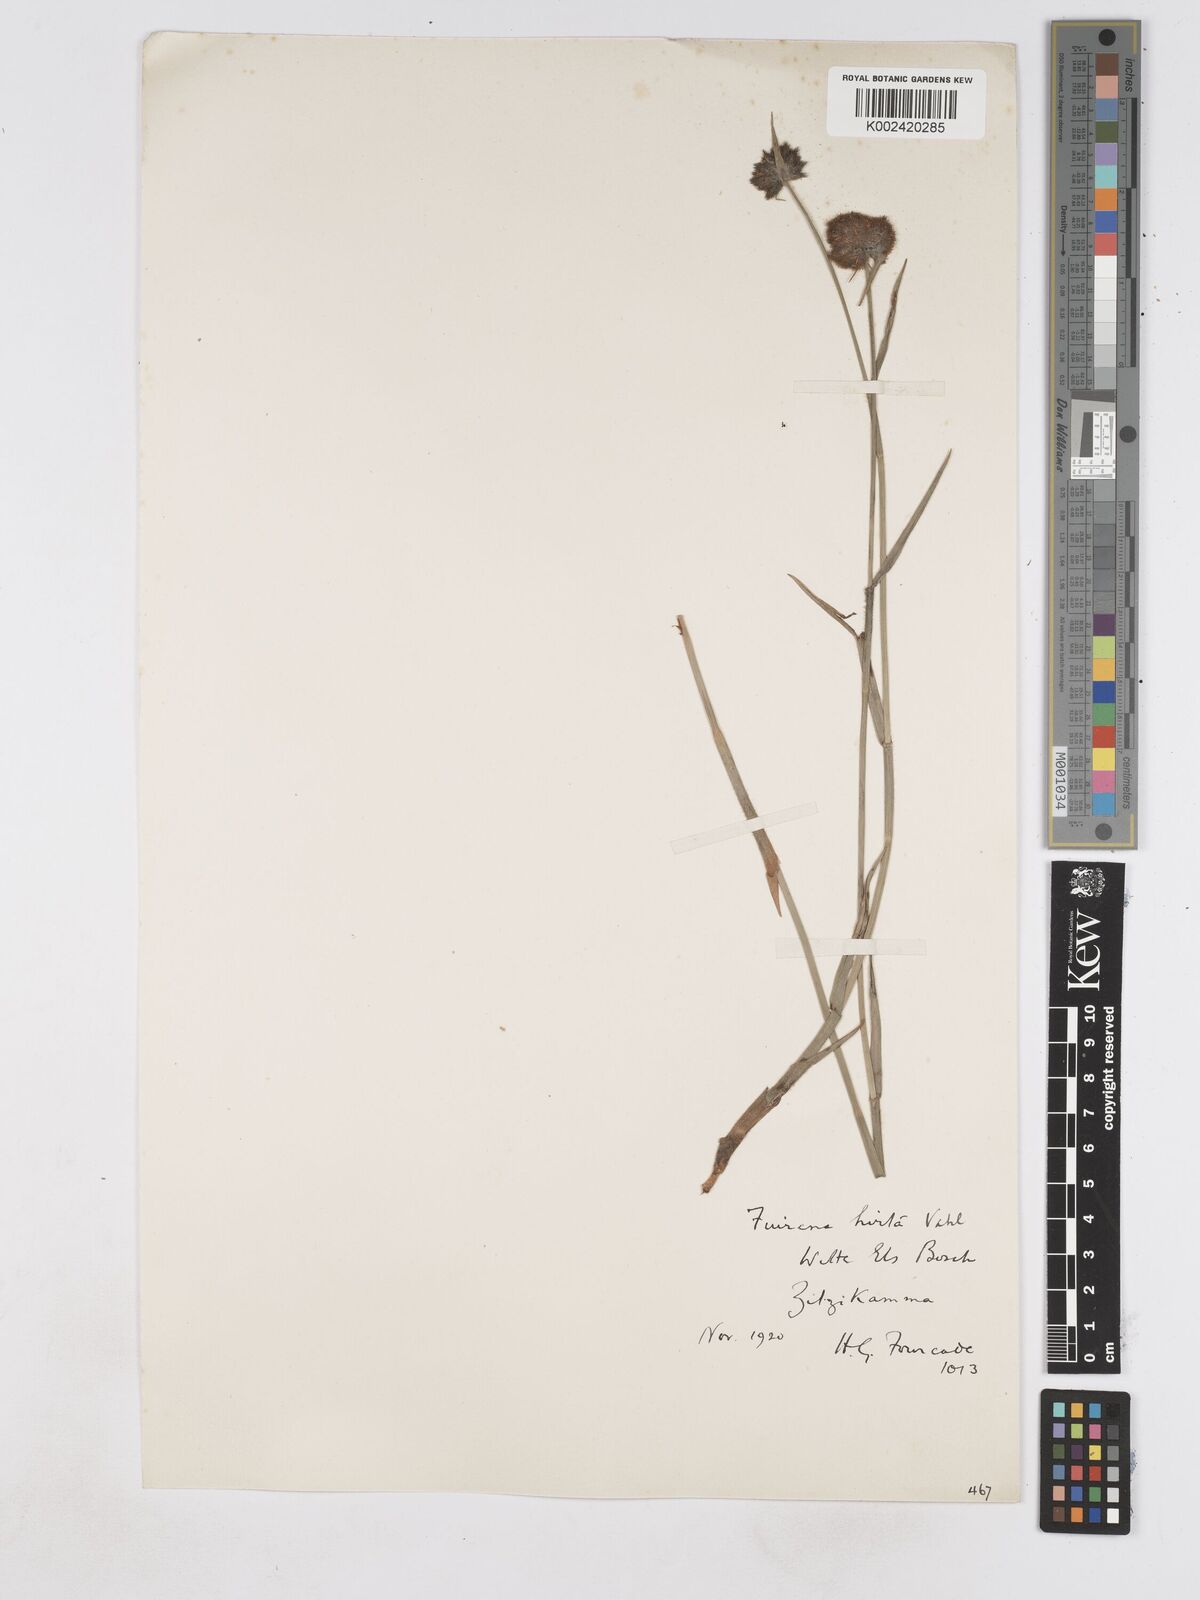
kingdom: Plantae
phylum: Tracheophyta
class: Liliopsida
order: Poales
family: Cyperaceae
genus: Fuirena
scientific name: Fuirena hirsuta
